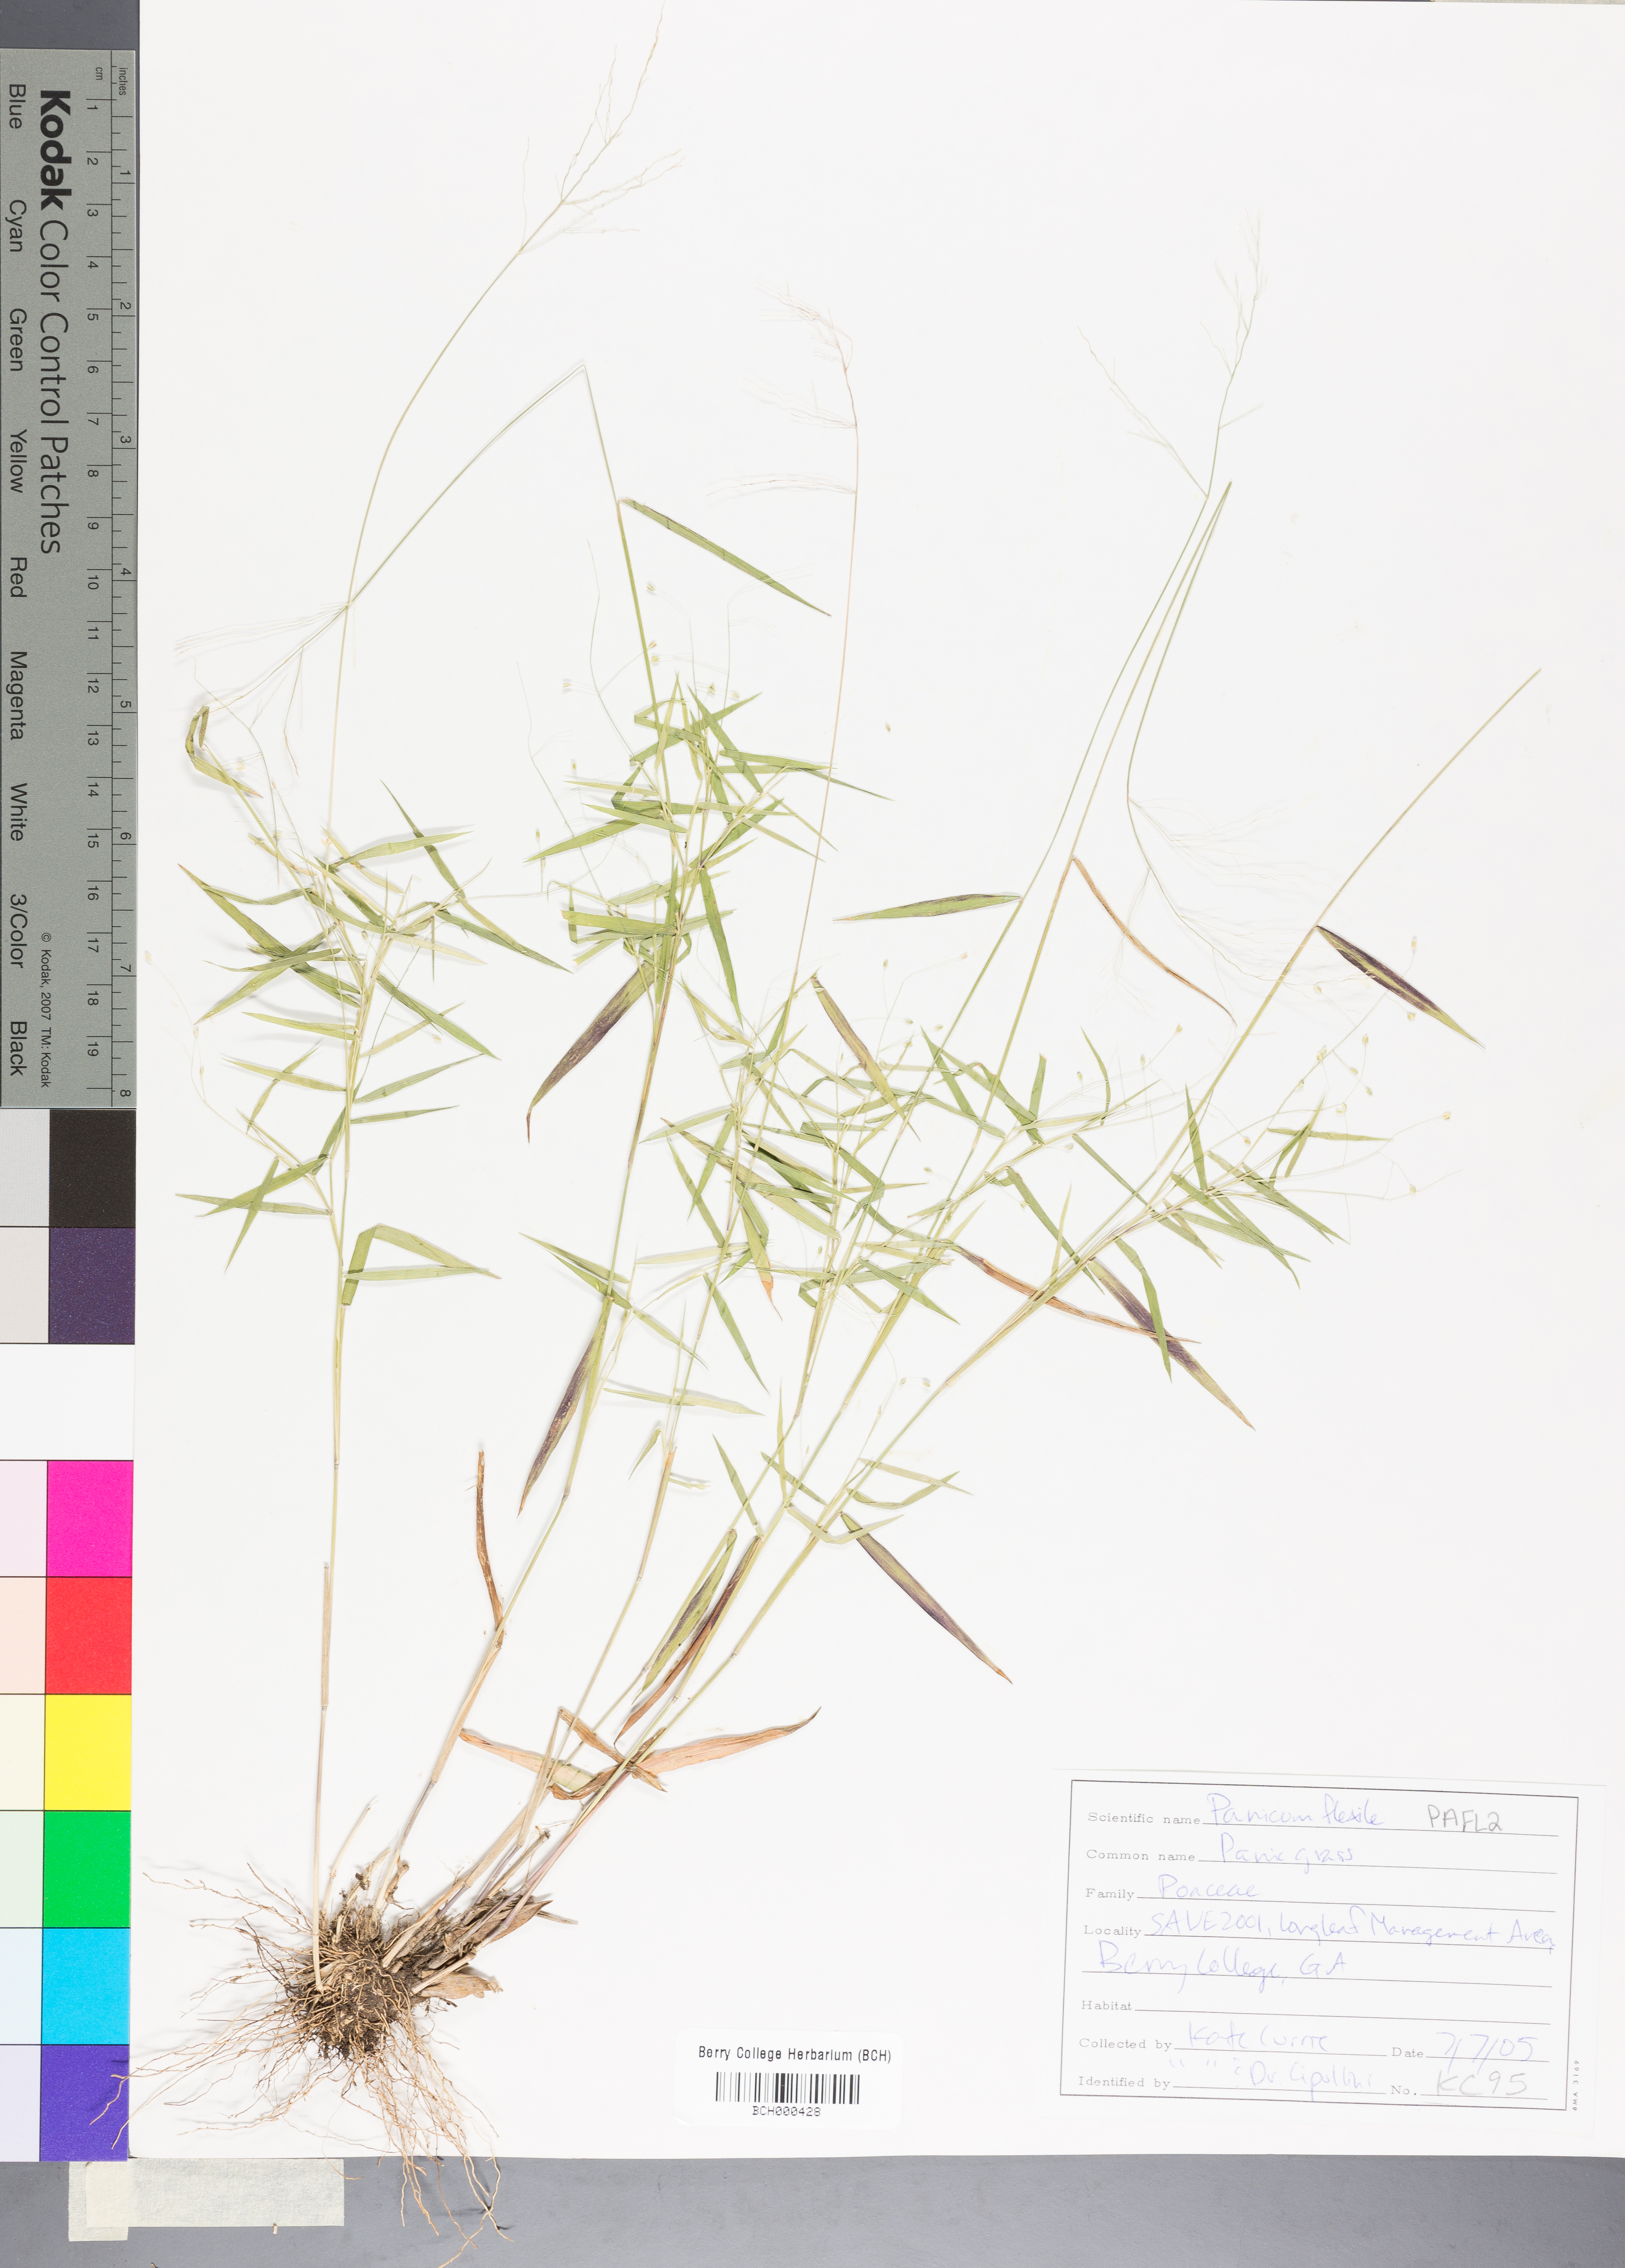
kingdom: Plantae
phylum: Tracheophyta
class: Liliopsida
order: Poales
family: Poaceae
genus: Panicum
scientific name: Panicum flexile
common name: Wiry panicgrass
